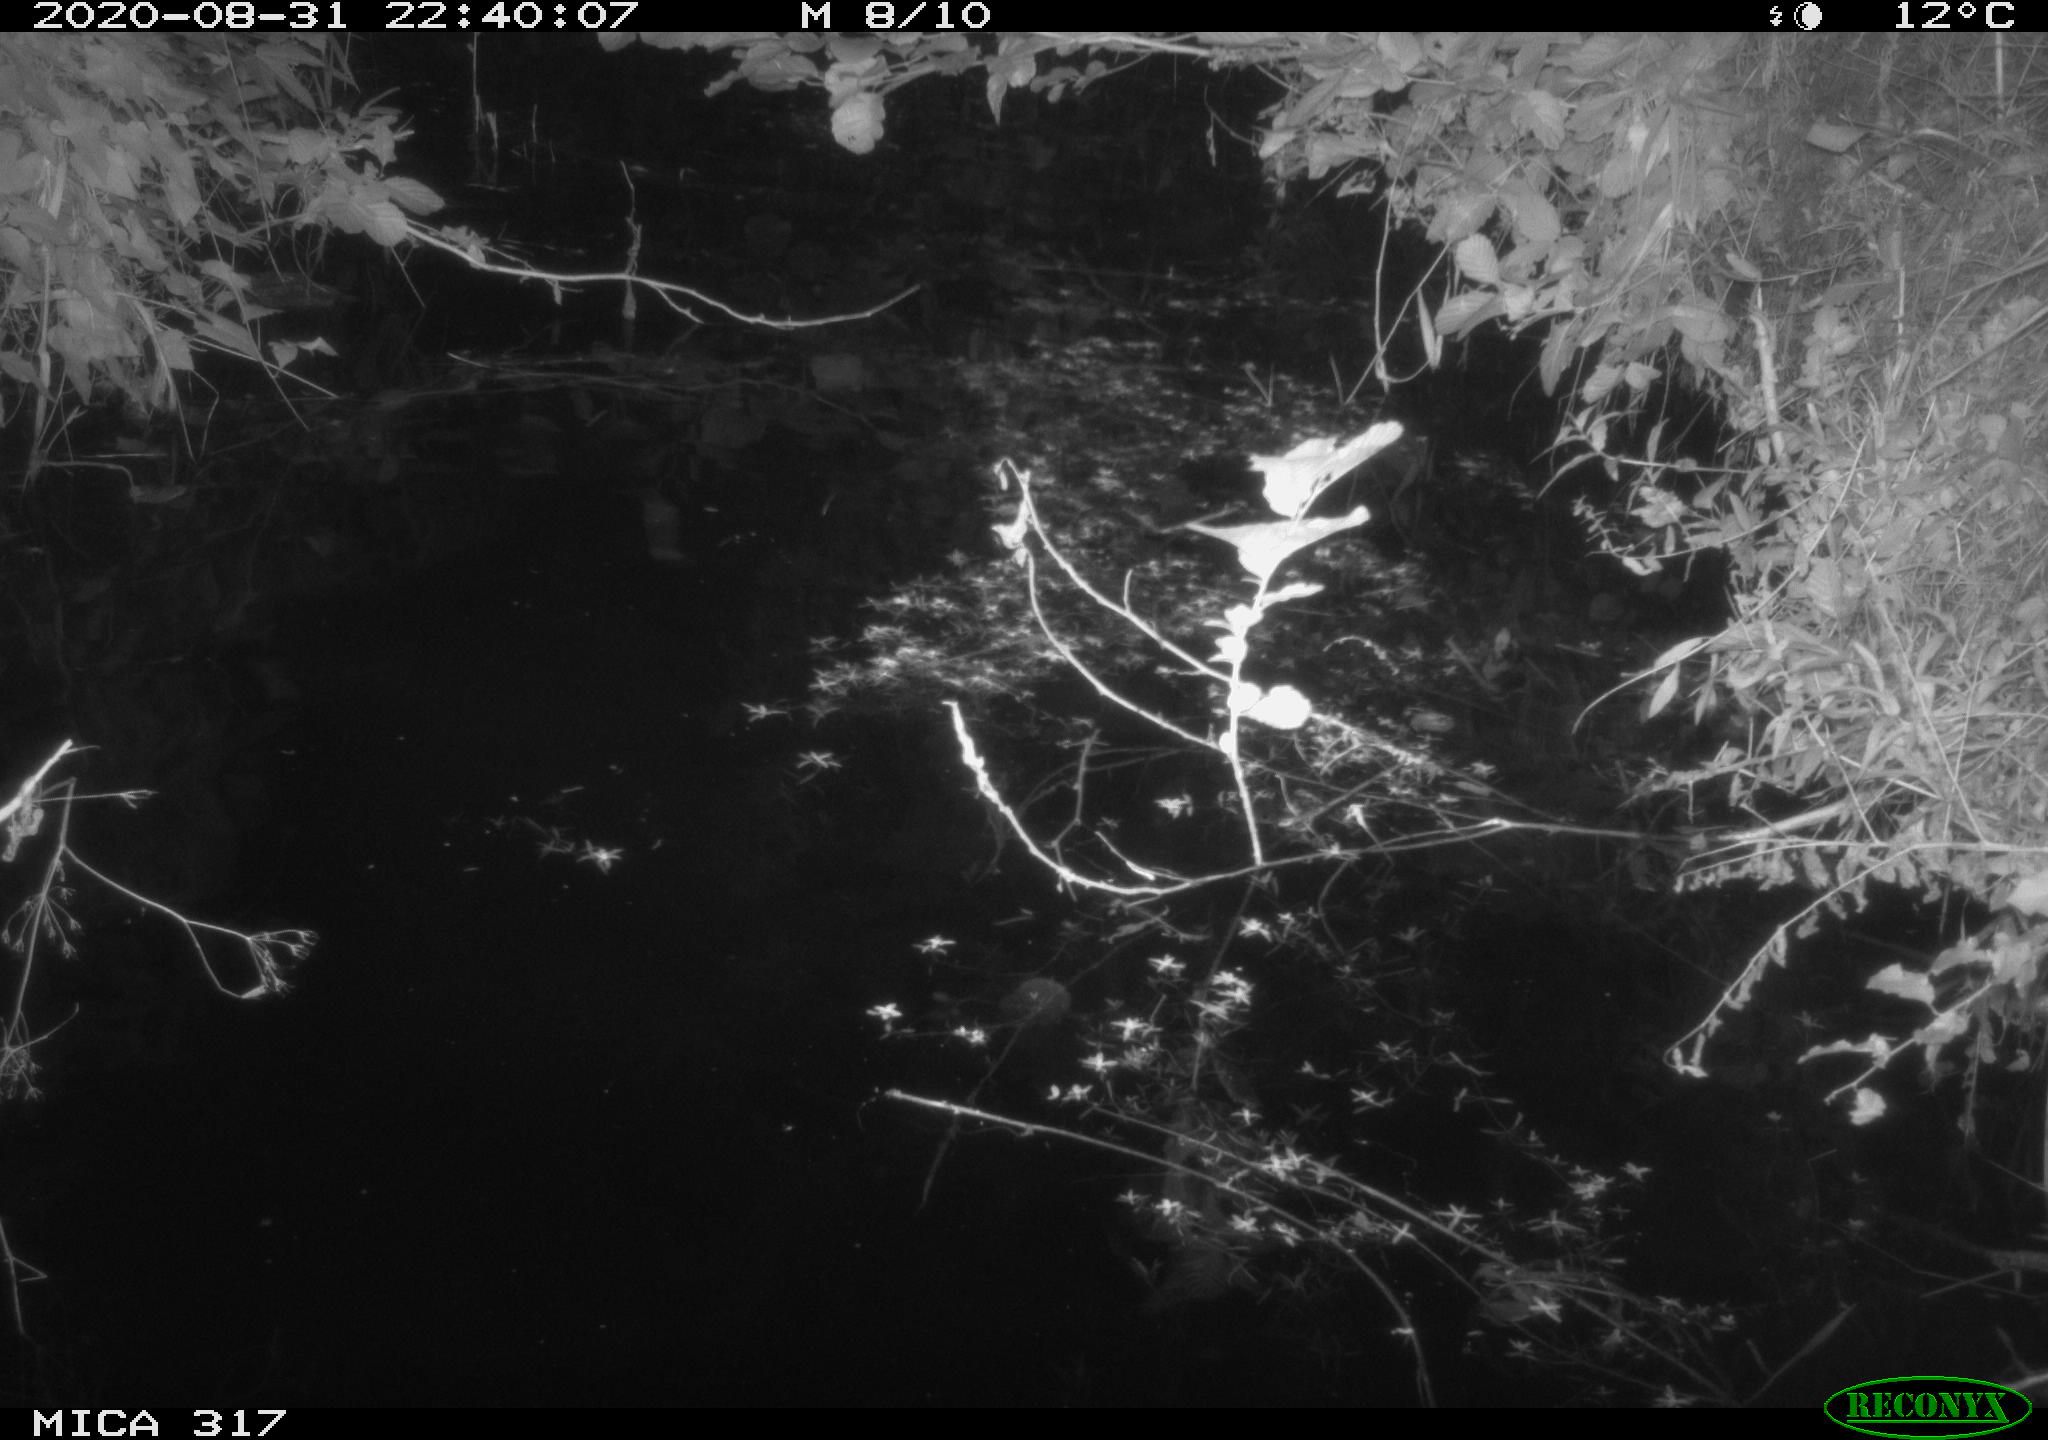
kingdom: Animalia
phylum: Chordata
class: Aves
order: Anseriformes
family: Anatidae
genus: Anas
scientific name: Anas platyrhynchos
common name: Mallard
